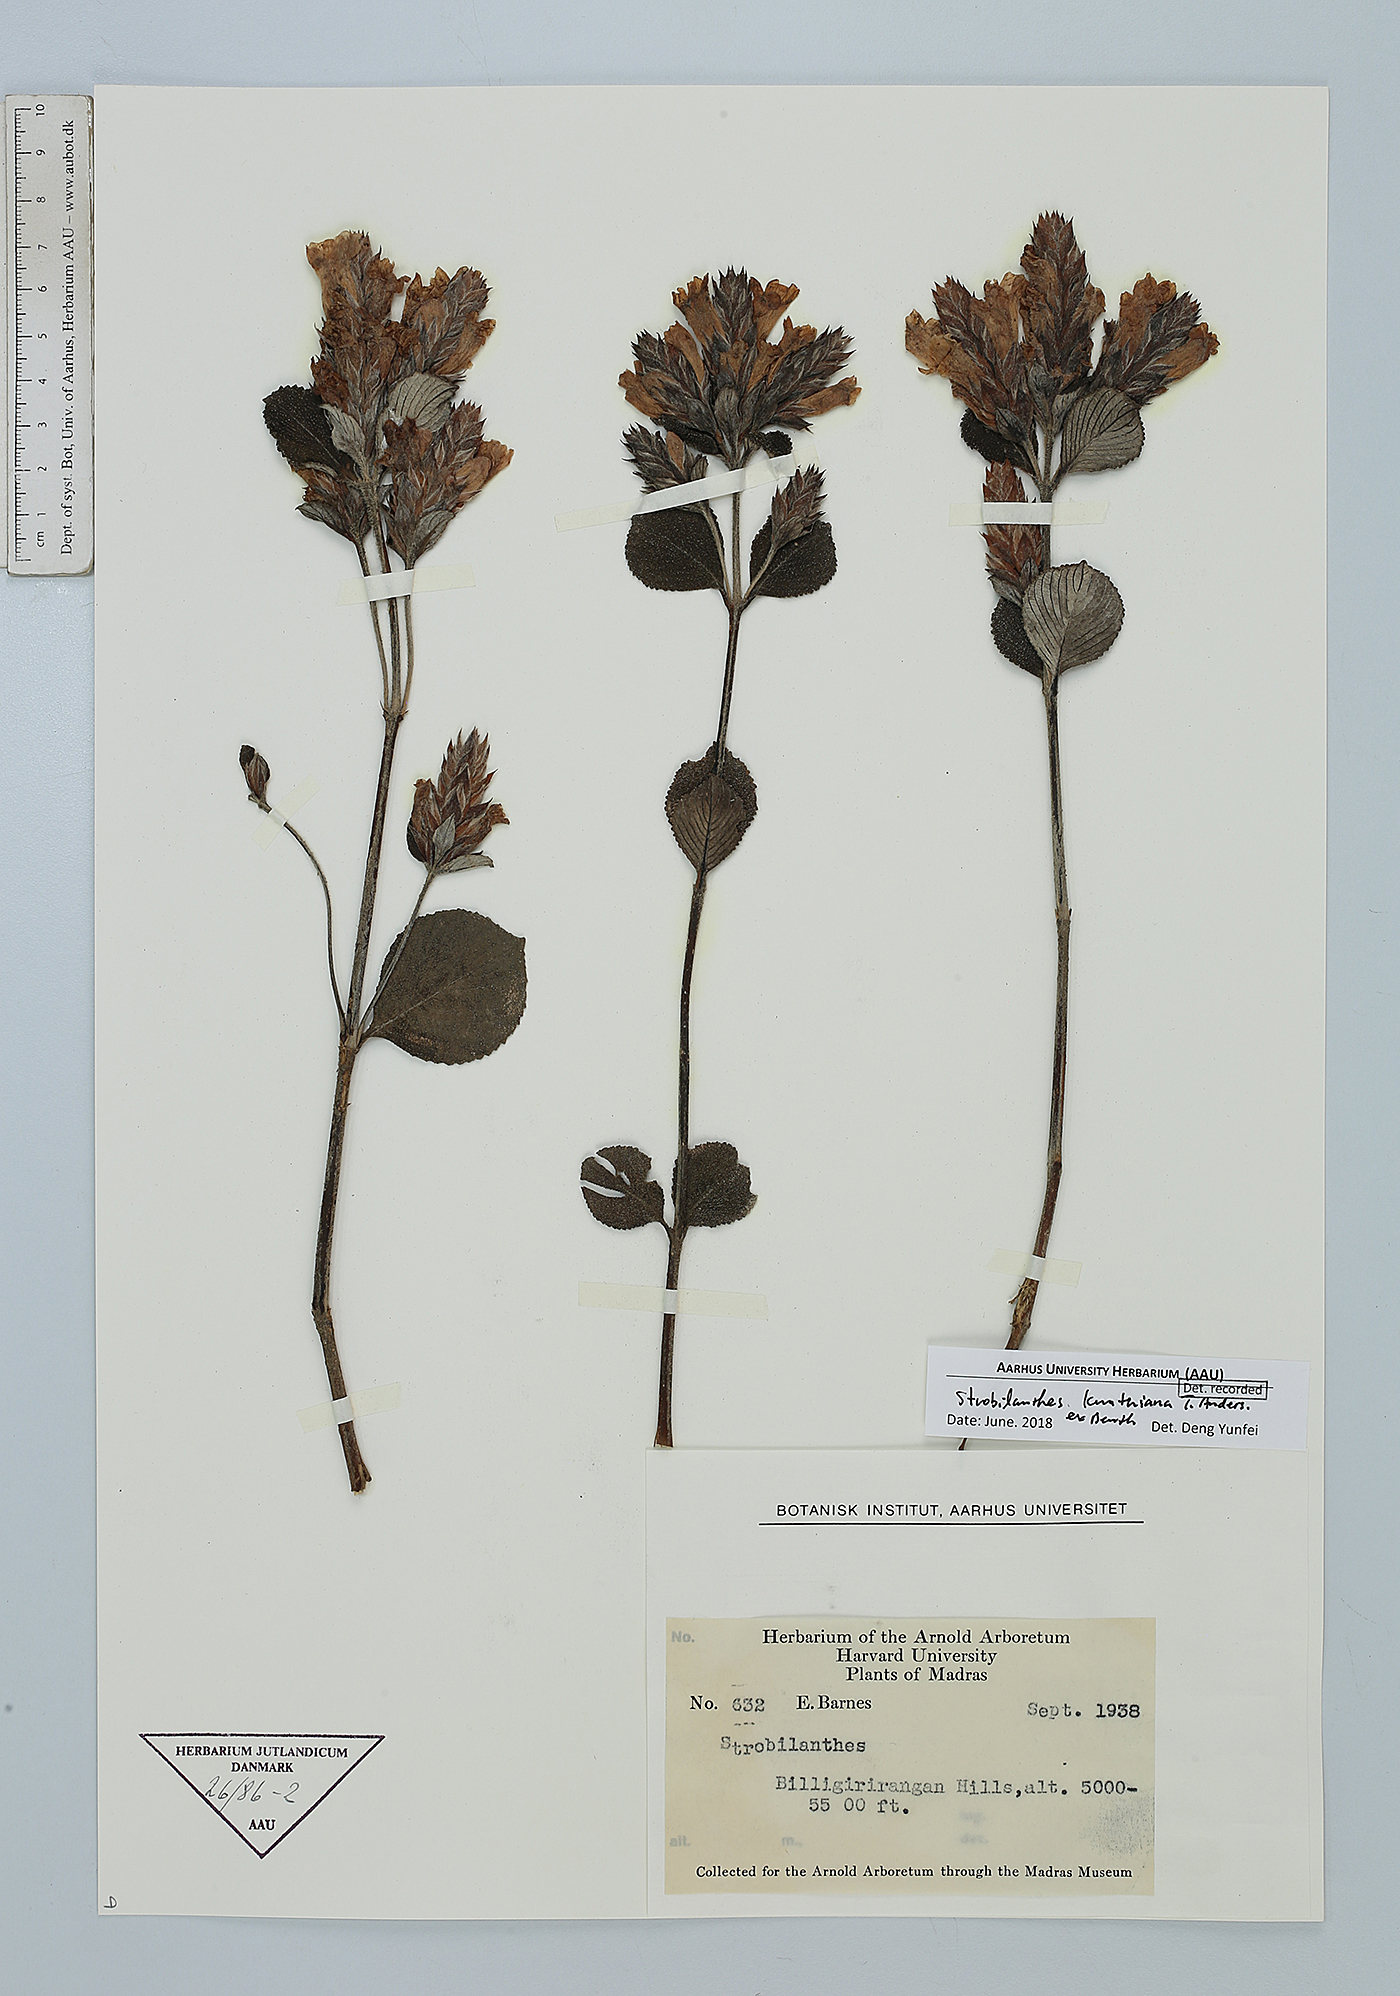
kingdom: Plantae
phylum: Tracheophyta
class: Magnoliopsida
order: Lamiales
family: Acanthaceae
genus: Strobilanthes
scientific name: Strobilanthes kunthiana
